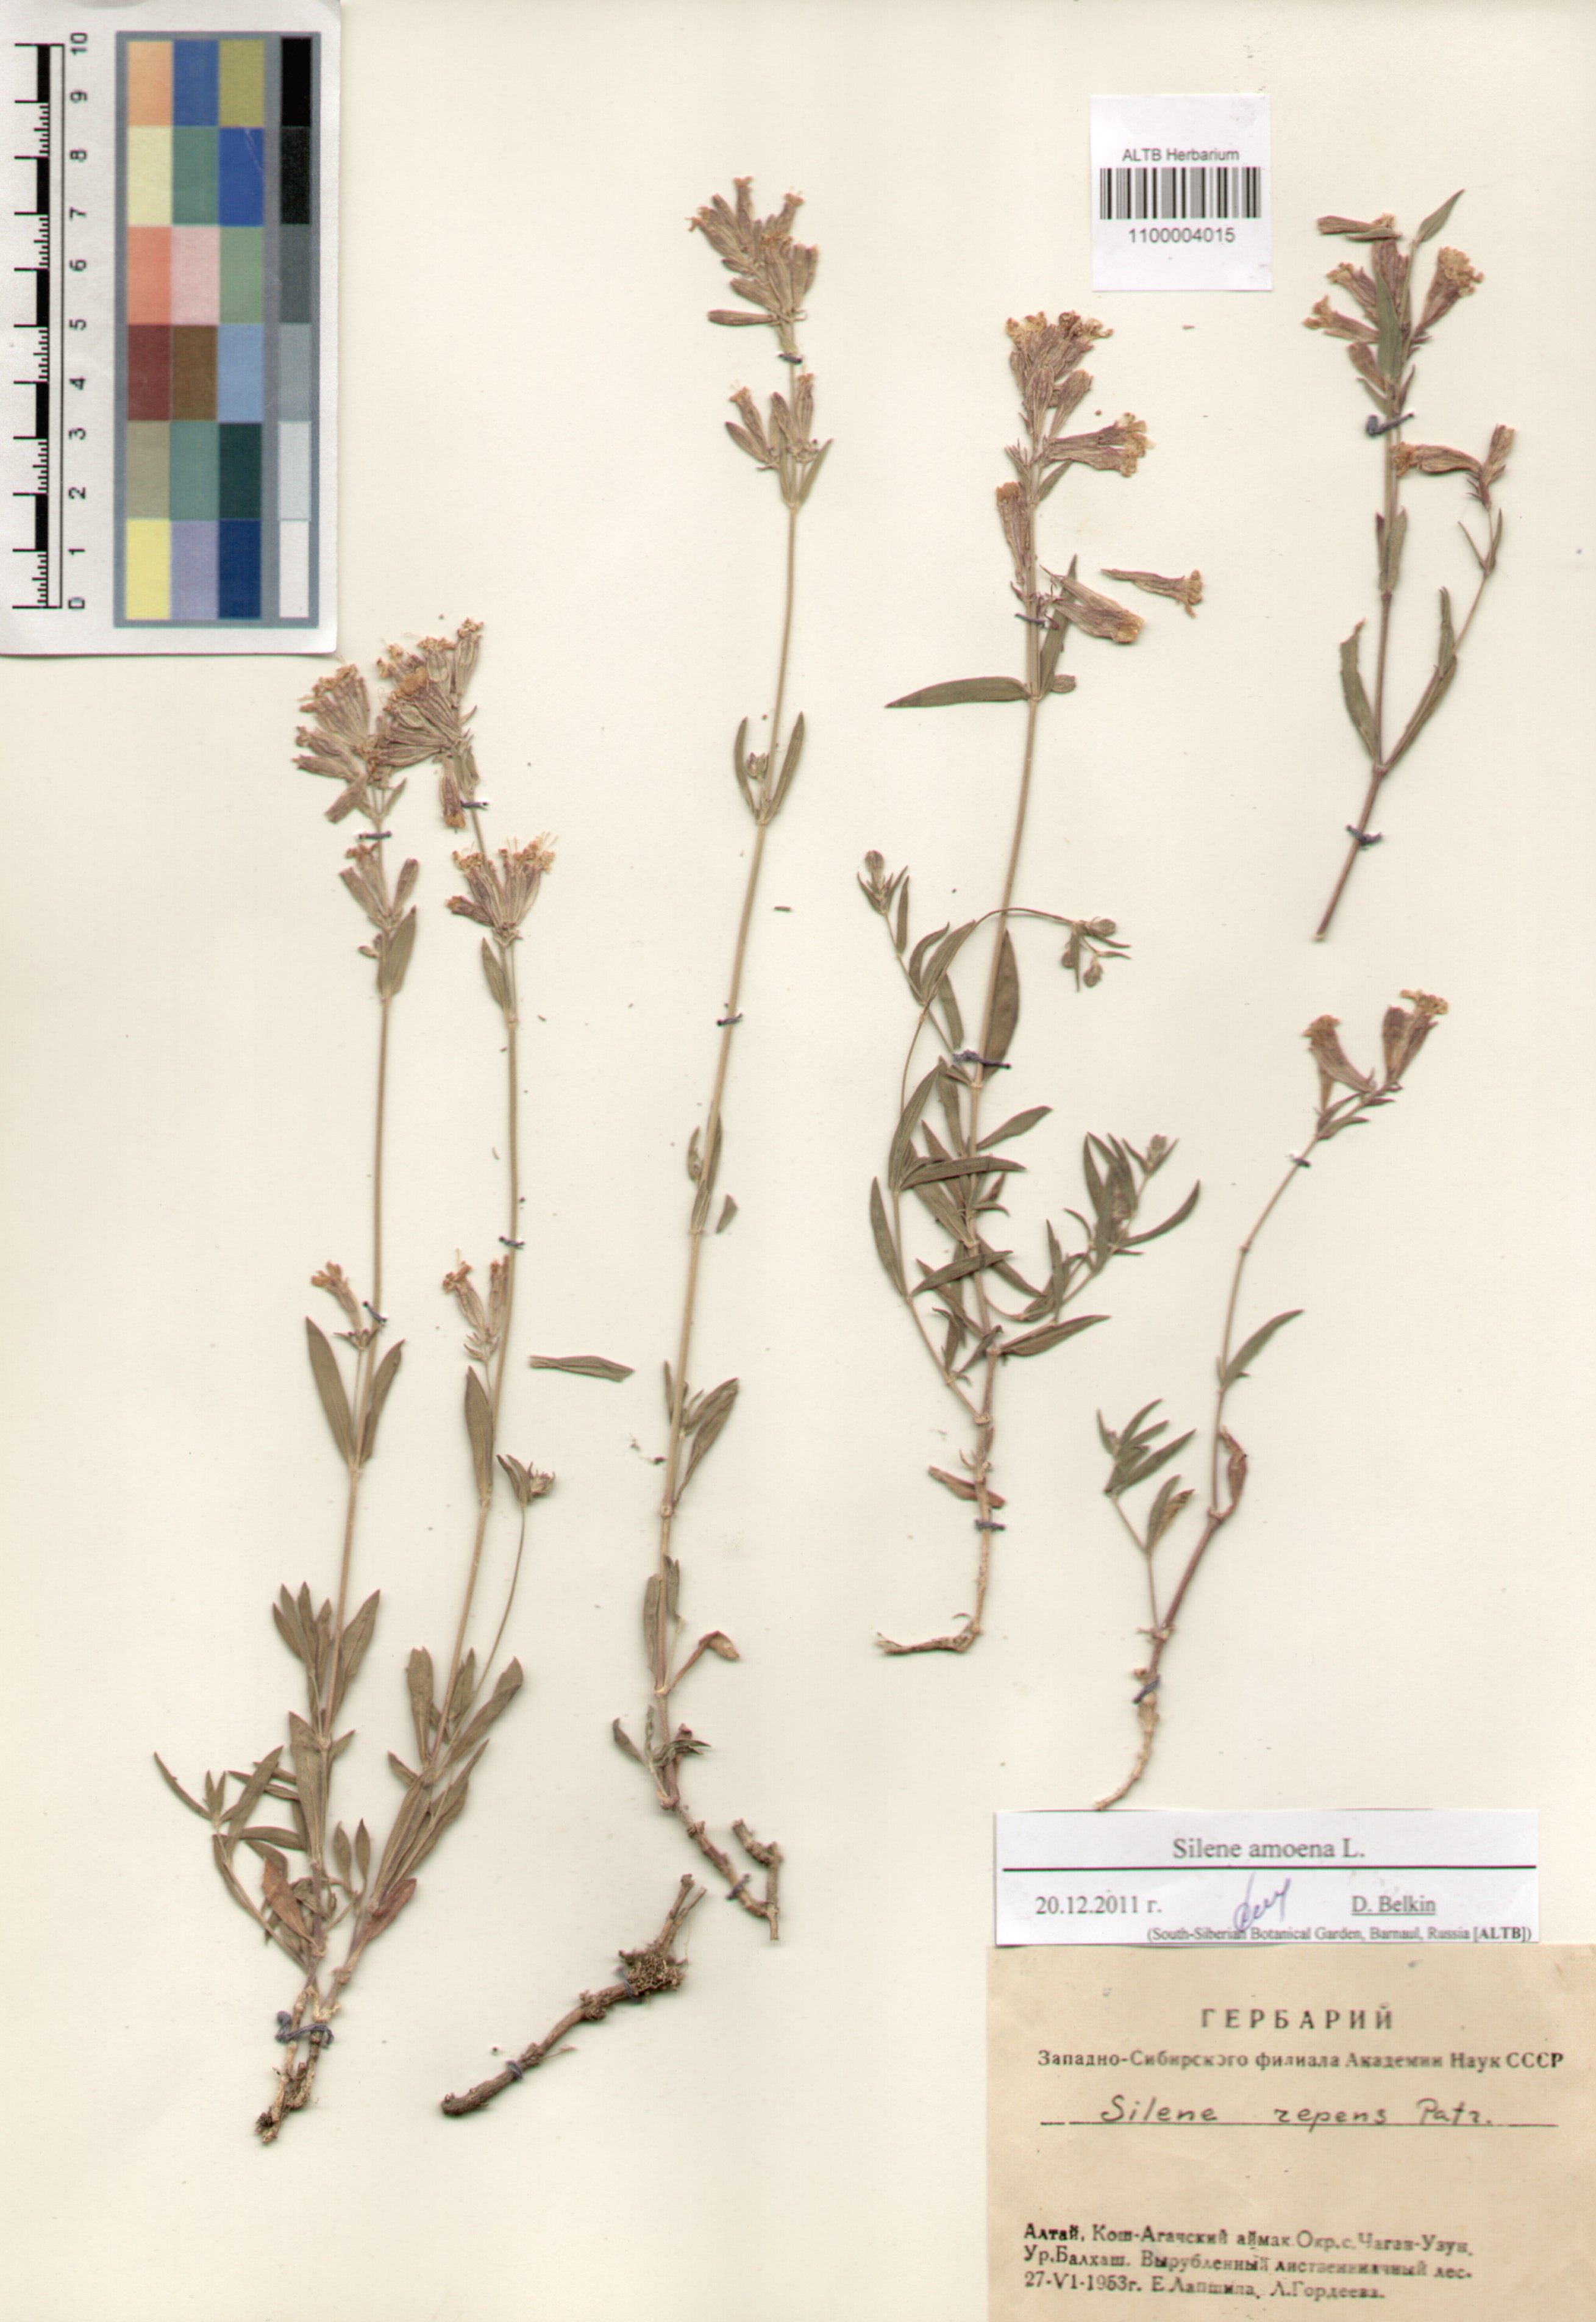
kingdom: Plantae
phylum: Tracheophyta
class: Magnoliopsida
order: Caryophyllales
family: Caryophyllaceae
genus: Silene
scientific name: Silene amoena
